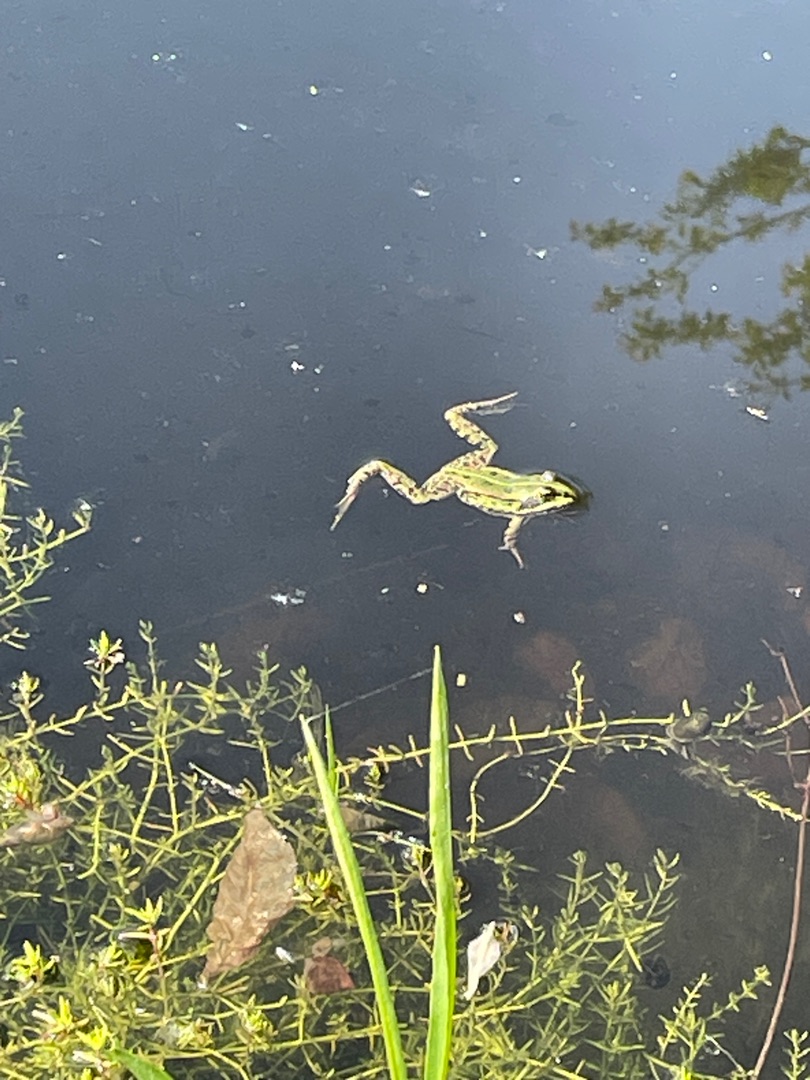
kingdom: Animalia
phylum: Chordata
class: Amphibia
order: Anura
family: Ranidae
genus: Pelophylax
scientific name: Pelophylax lessonae
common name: Grøn frø
